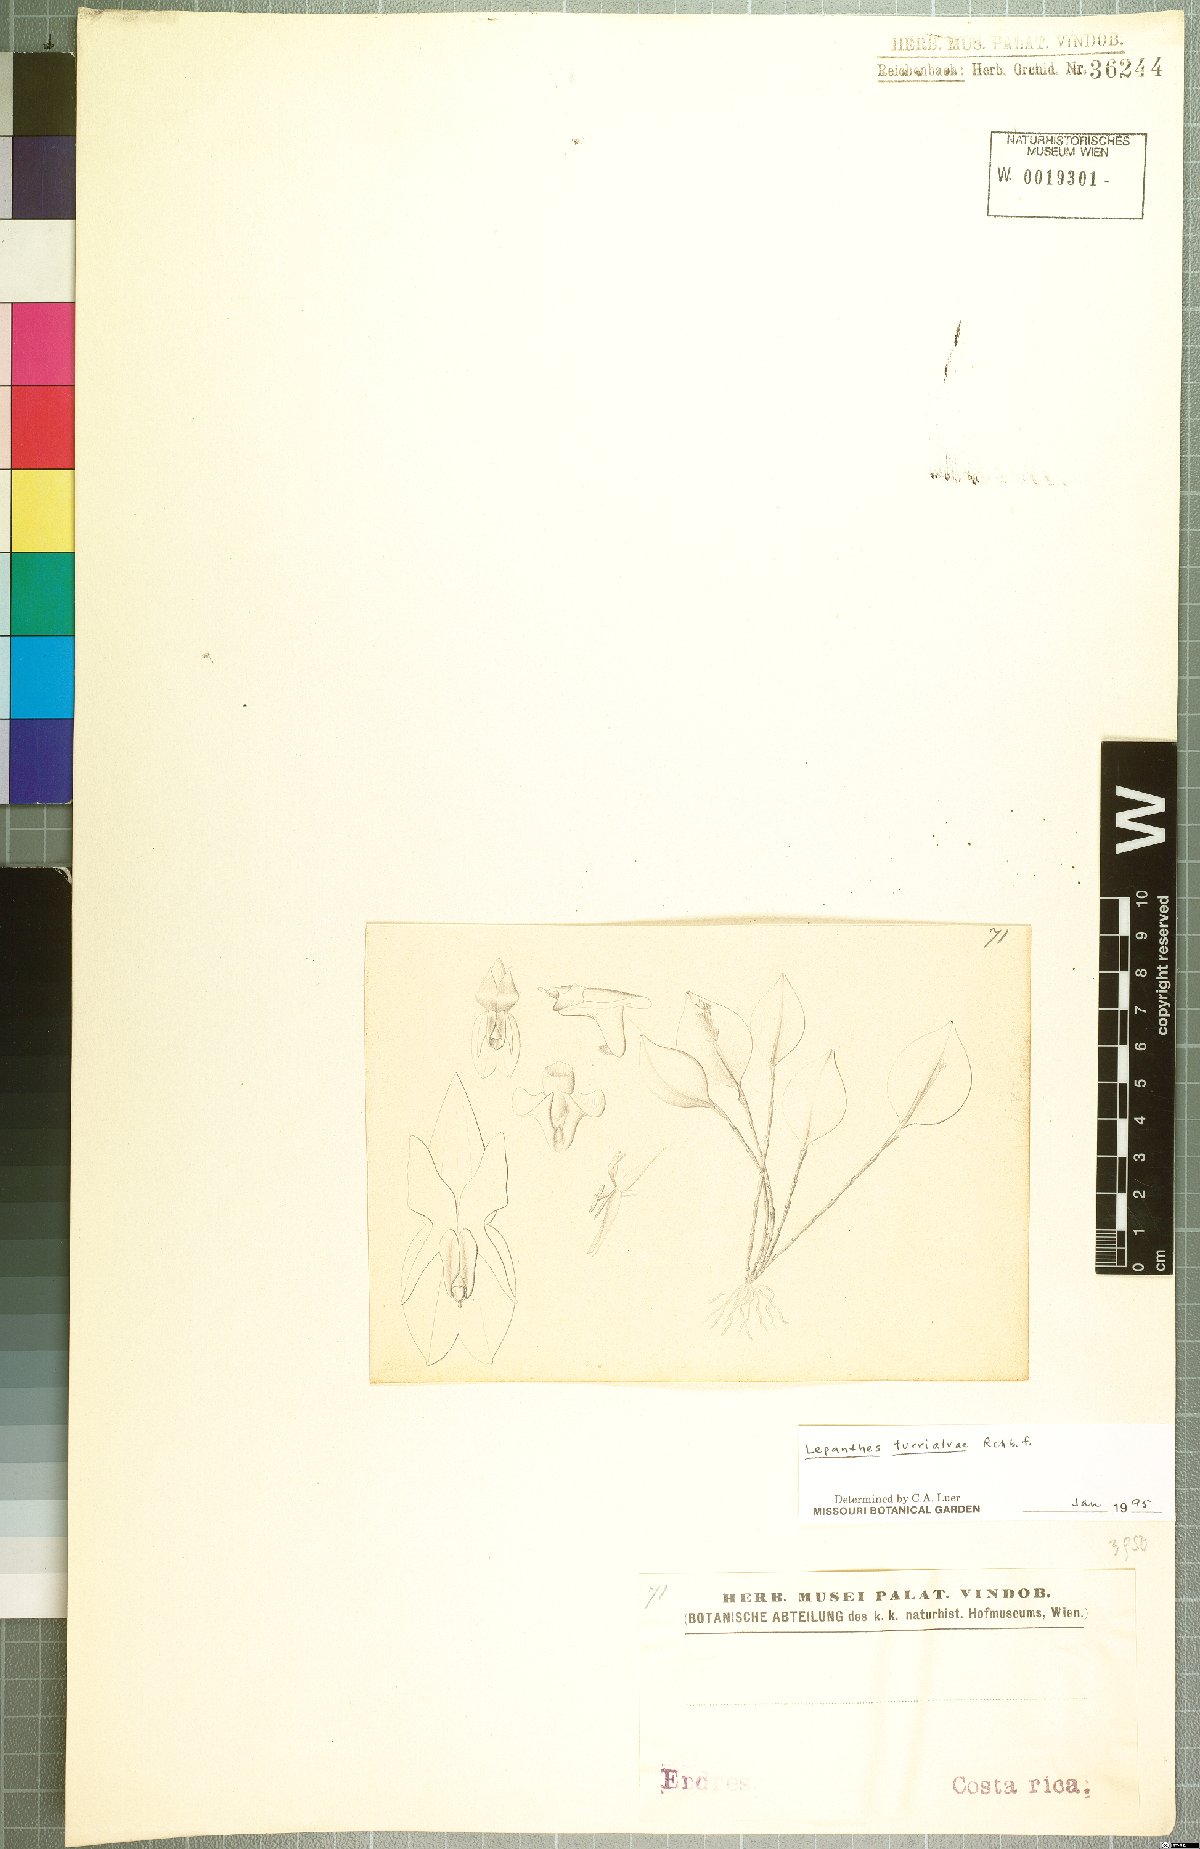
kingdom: Plantae
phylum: Tracheophyta
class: Liliopsida
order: Asparagales
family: Orchidaceae
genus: Lepanthes
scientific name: Lepanthes turialvae
